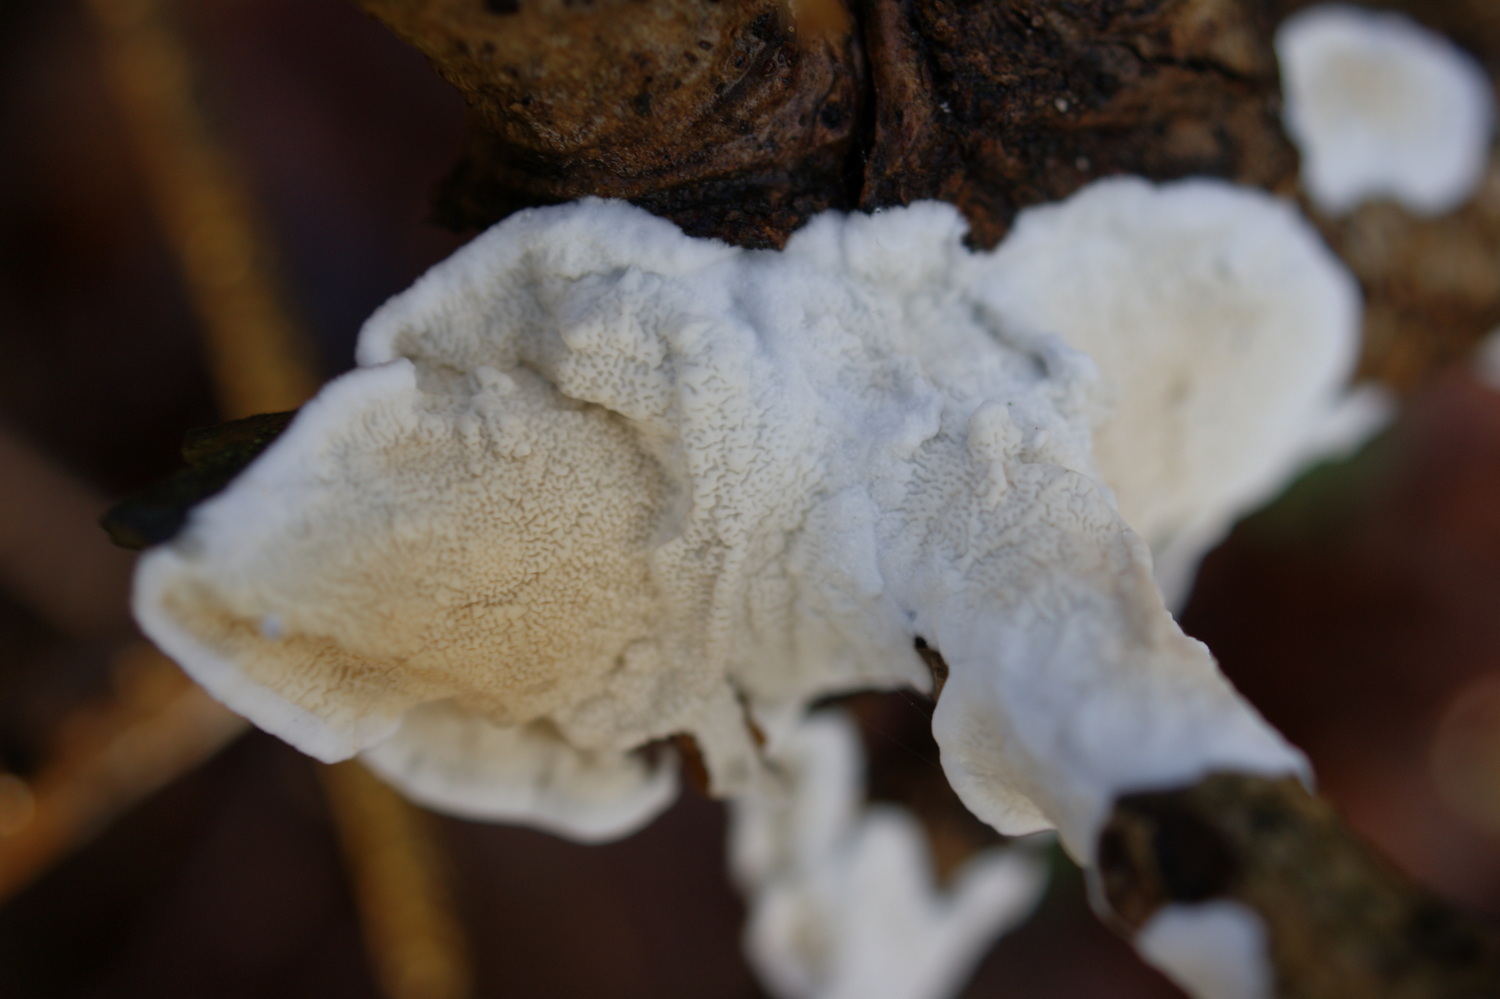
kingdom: Fungi
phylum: Basidiomycota
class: Agaricomycetes
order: Polyporales
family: Irpicaceae
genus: Byssomerulius
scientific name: Byssomerulius corium
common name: læder-åresvamp
